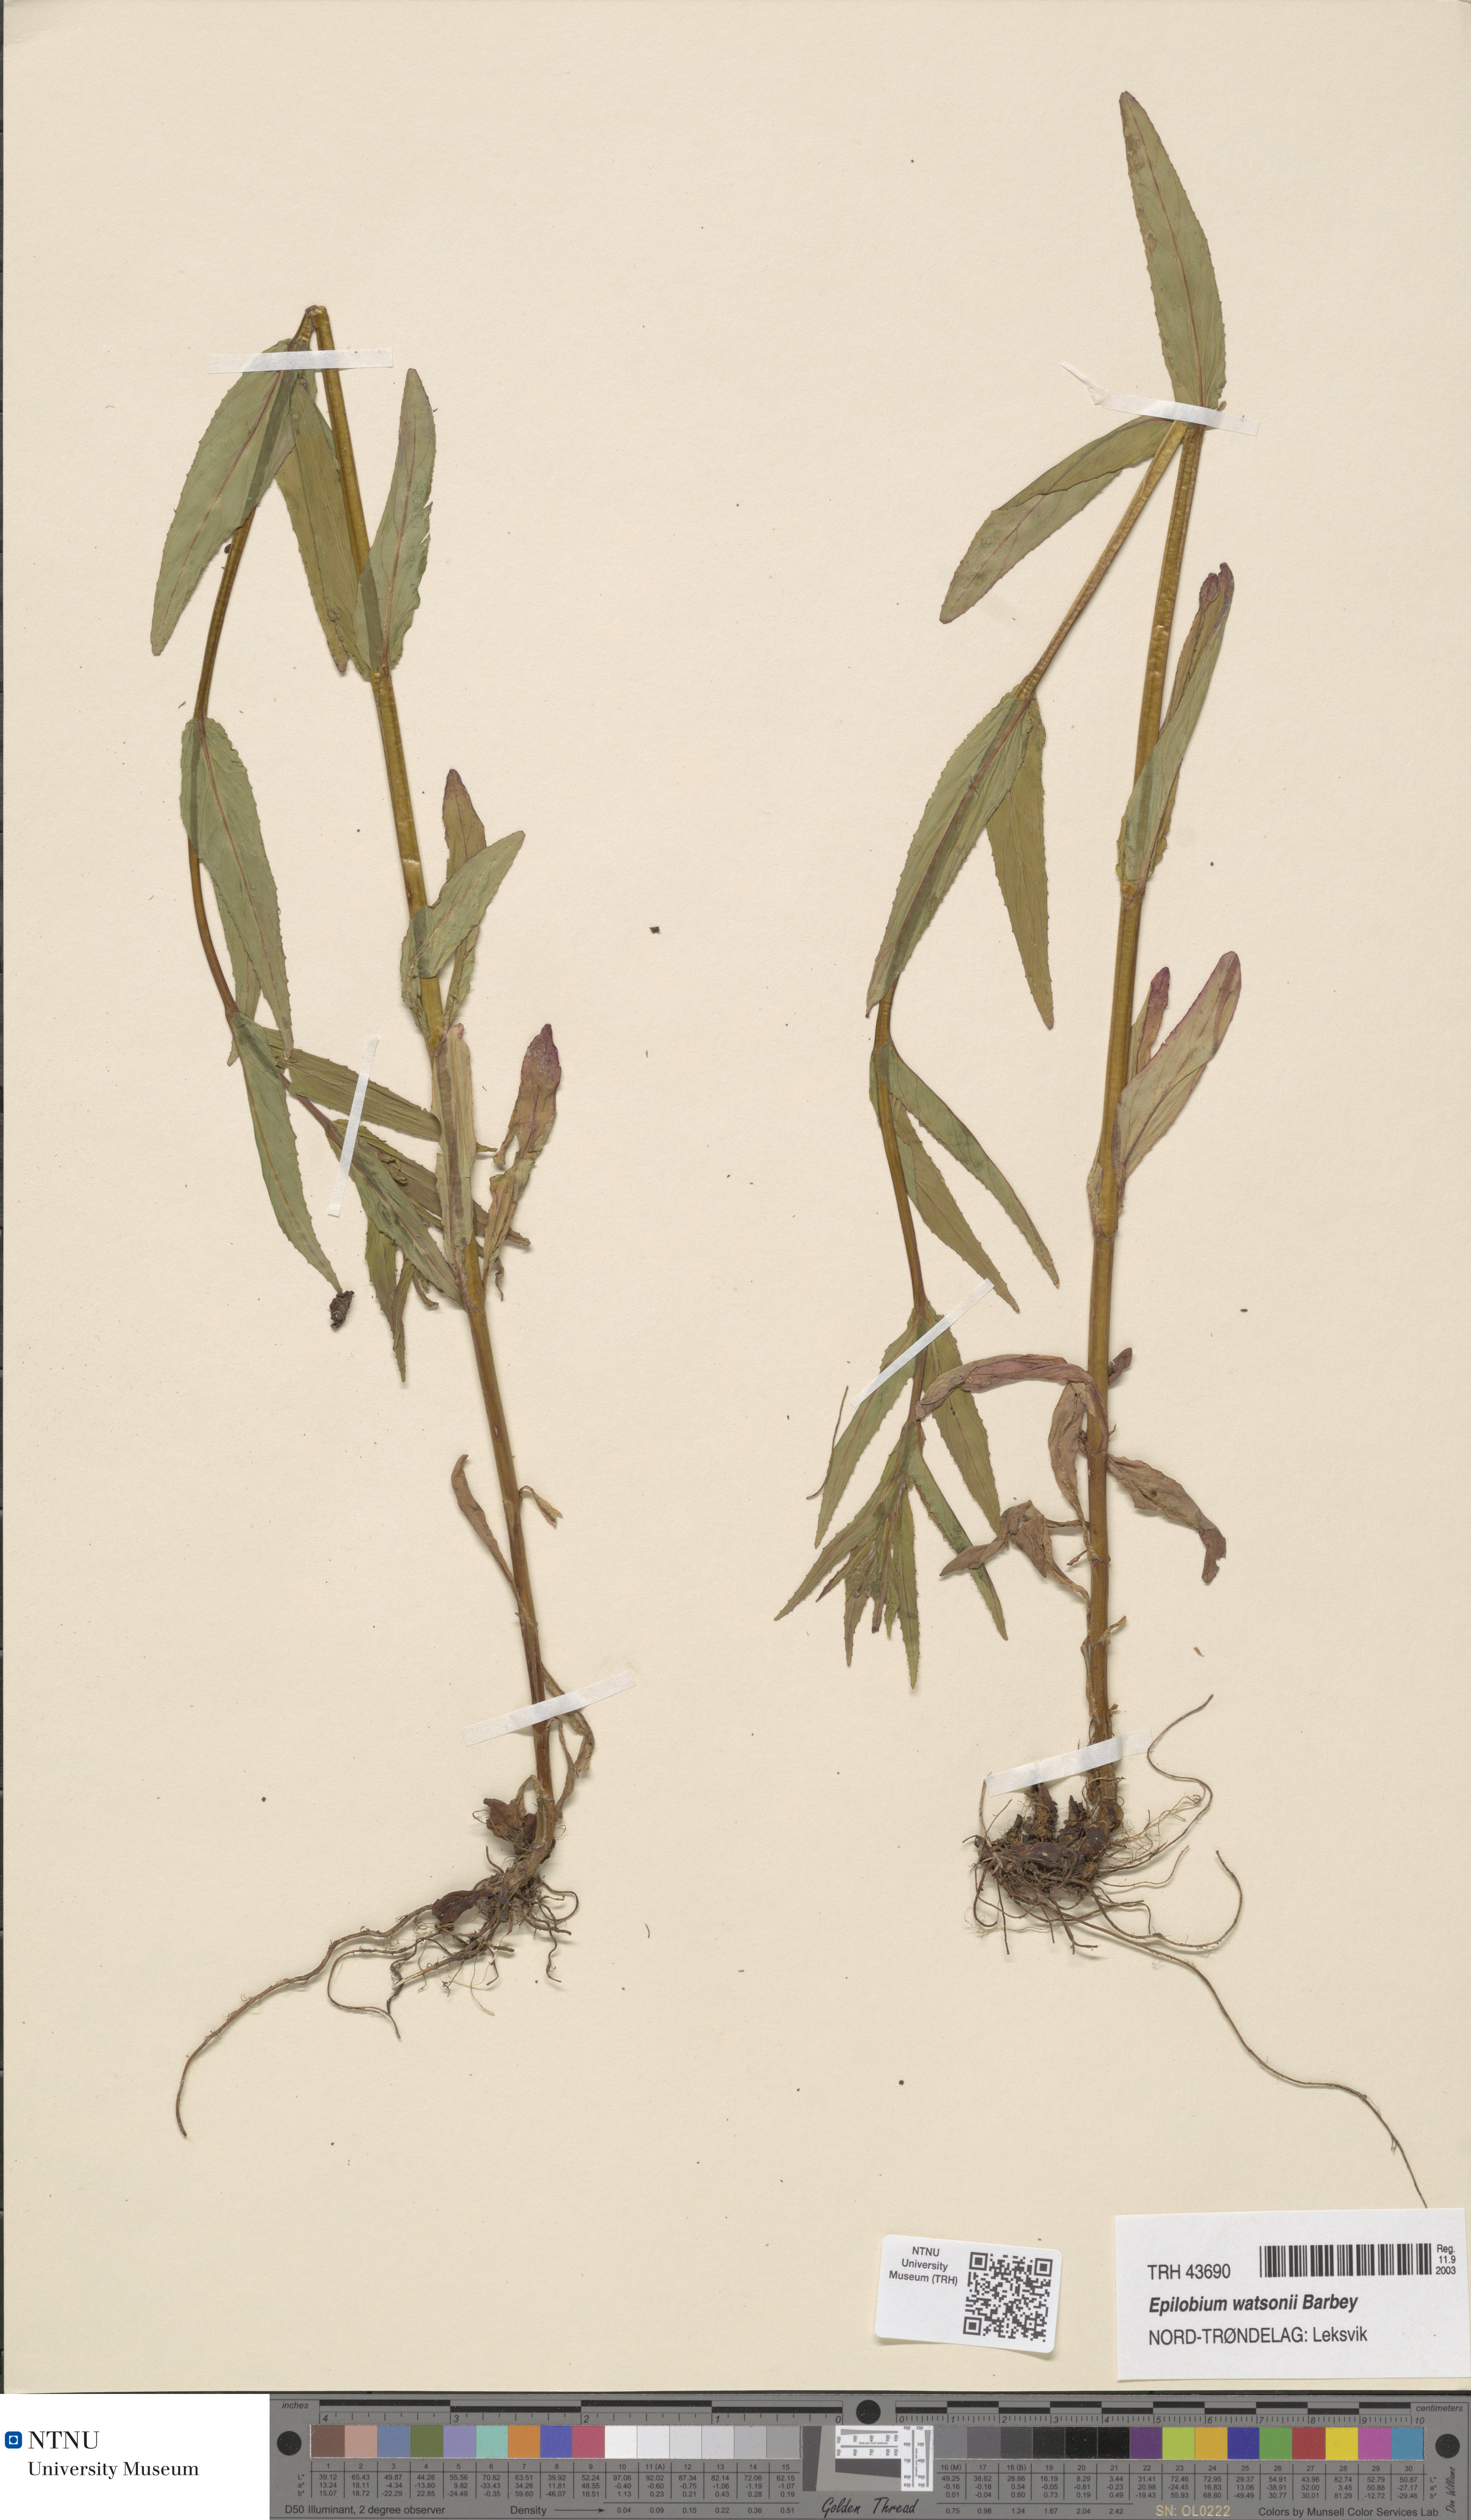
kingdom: Plantae
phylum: Tracheophyta
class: Magnoliopsida
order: Myrtales
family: Onagraceae
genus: Epilobium
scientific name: Epilobium ciliatum
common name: American willowherb
